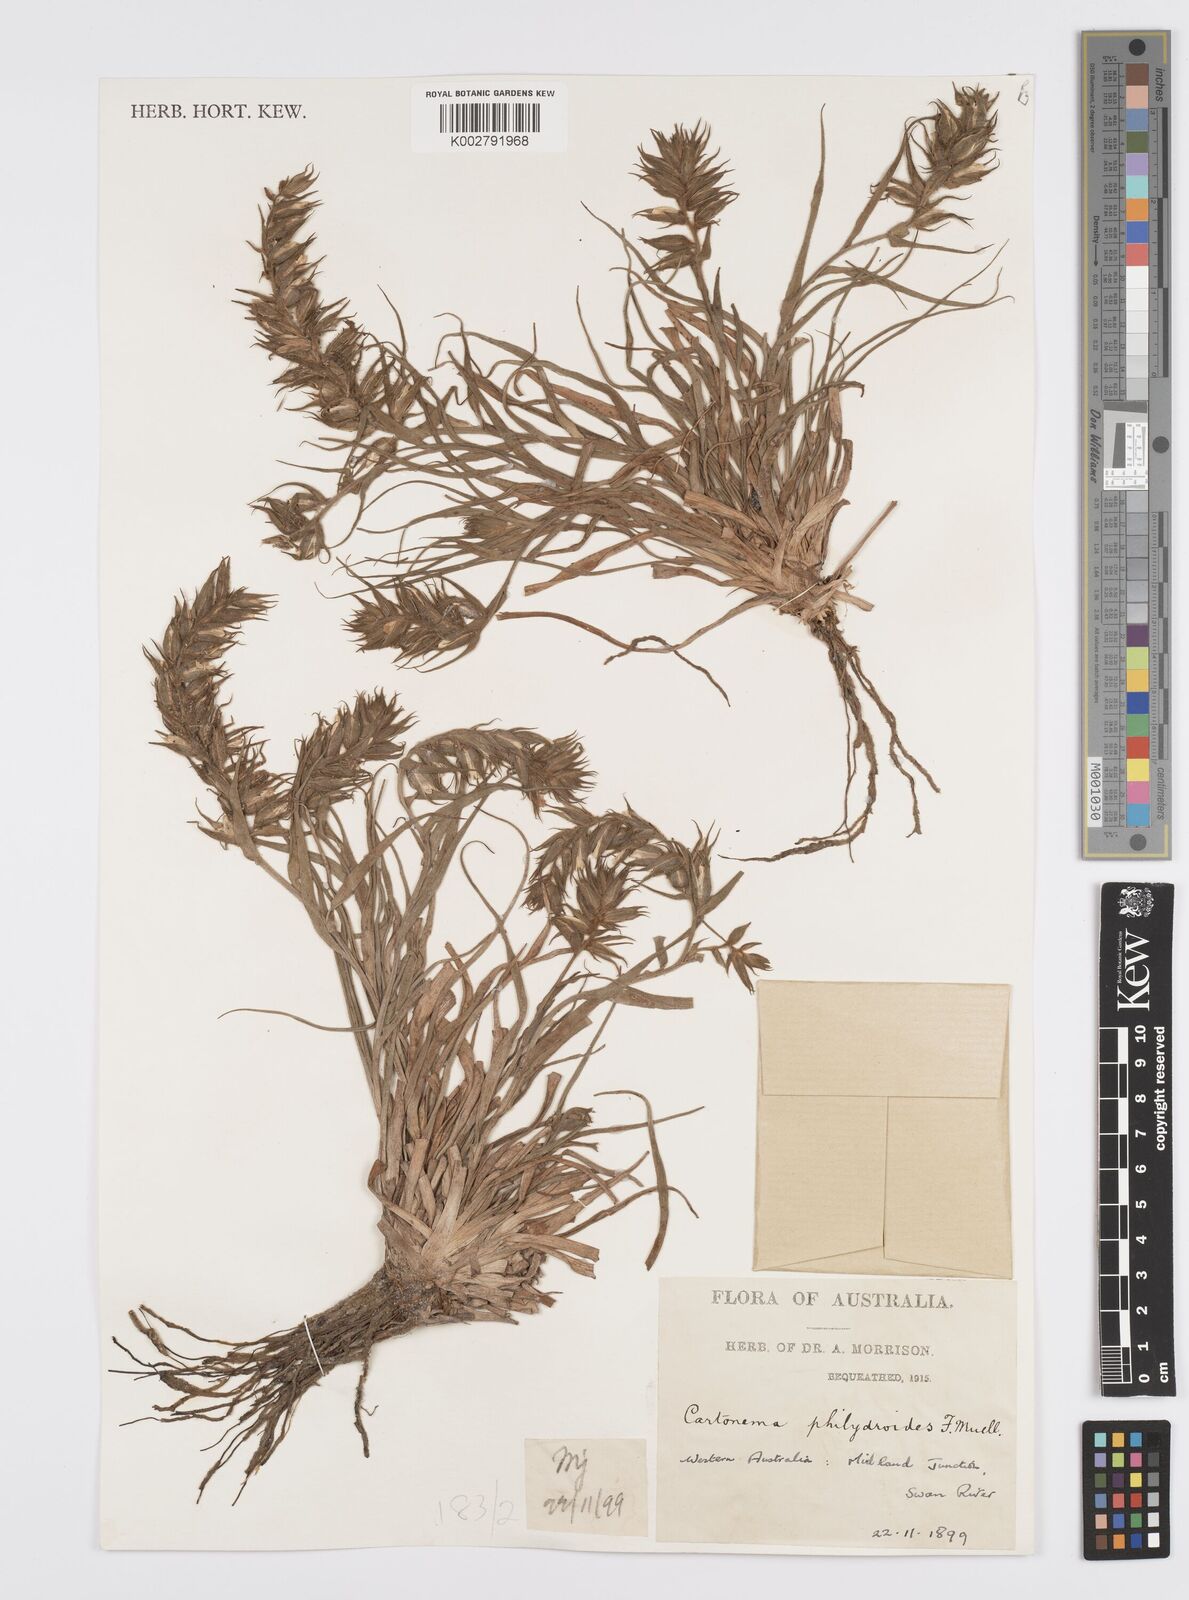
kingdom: Plantae
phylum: Tracheophyta
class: Liliopsida
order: Commelinales
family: Commelinaceae
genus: Cartonema
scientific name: Cartonema philydroides
